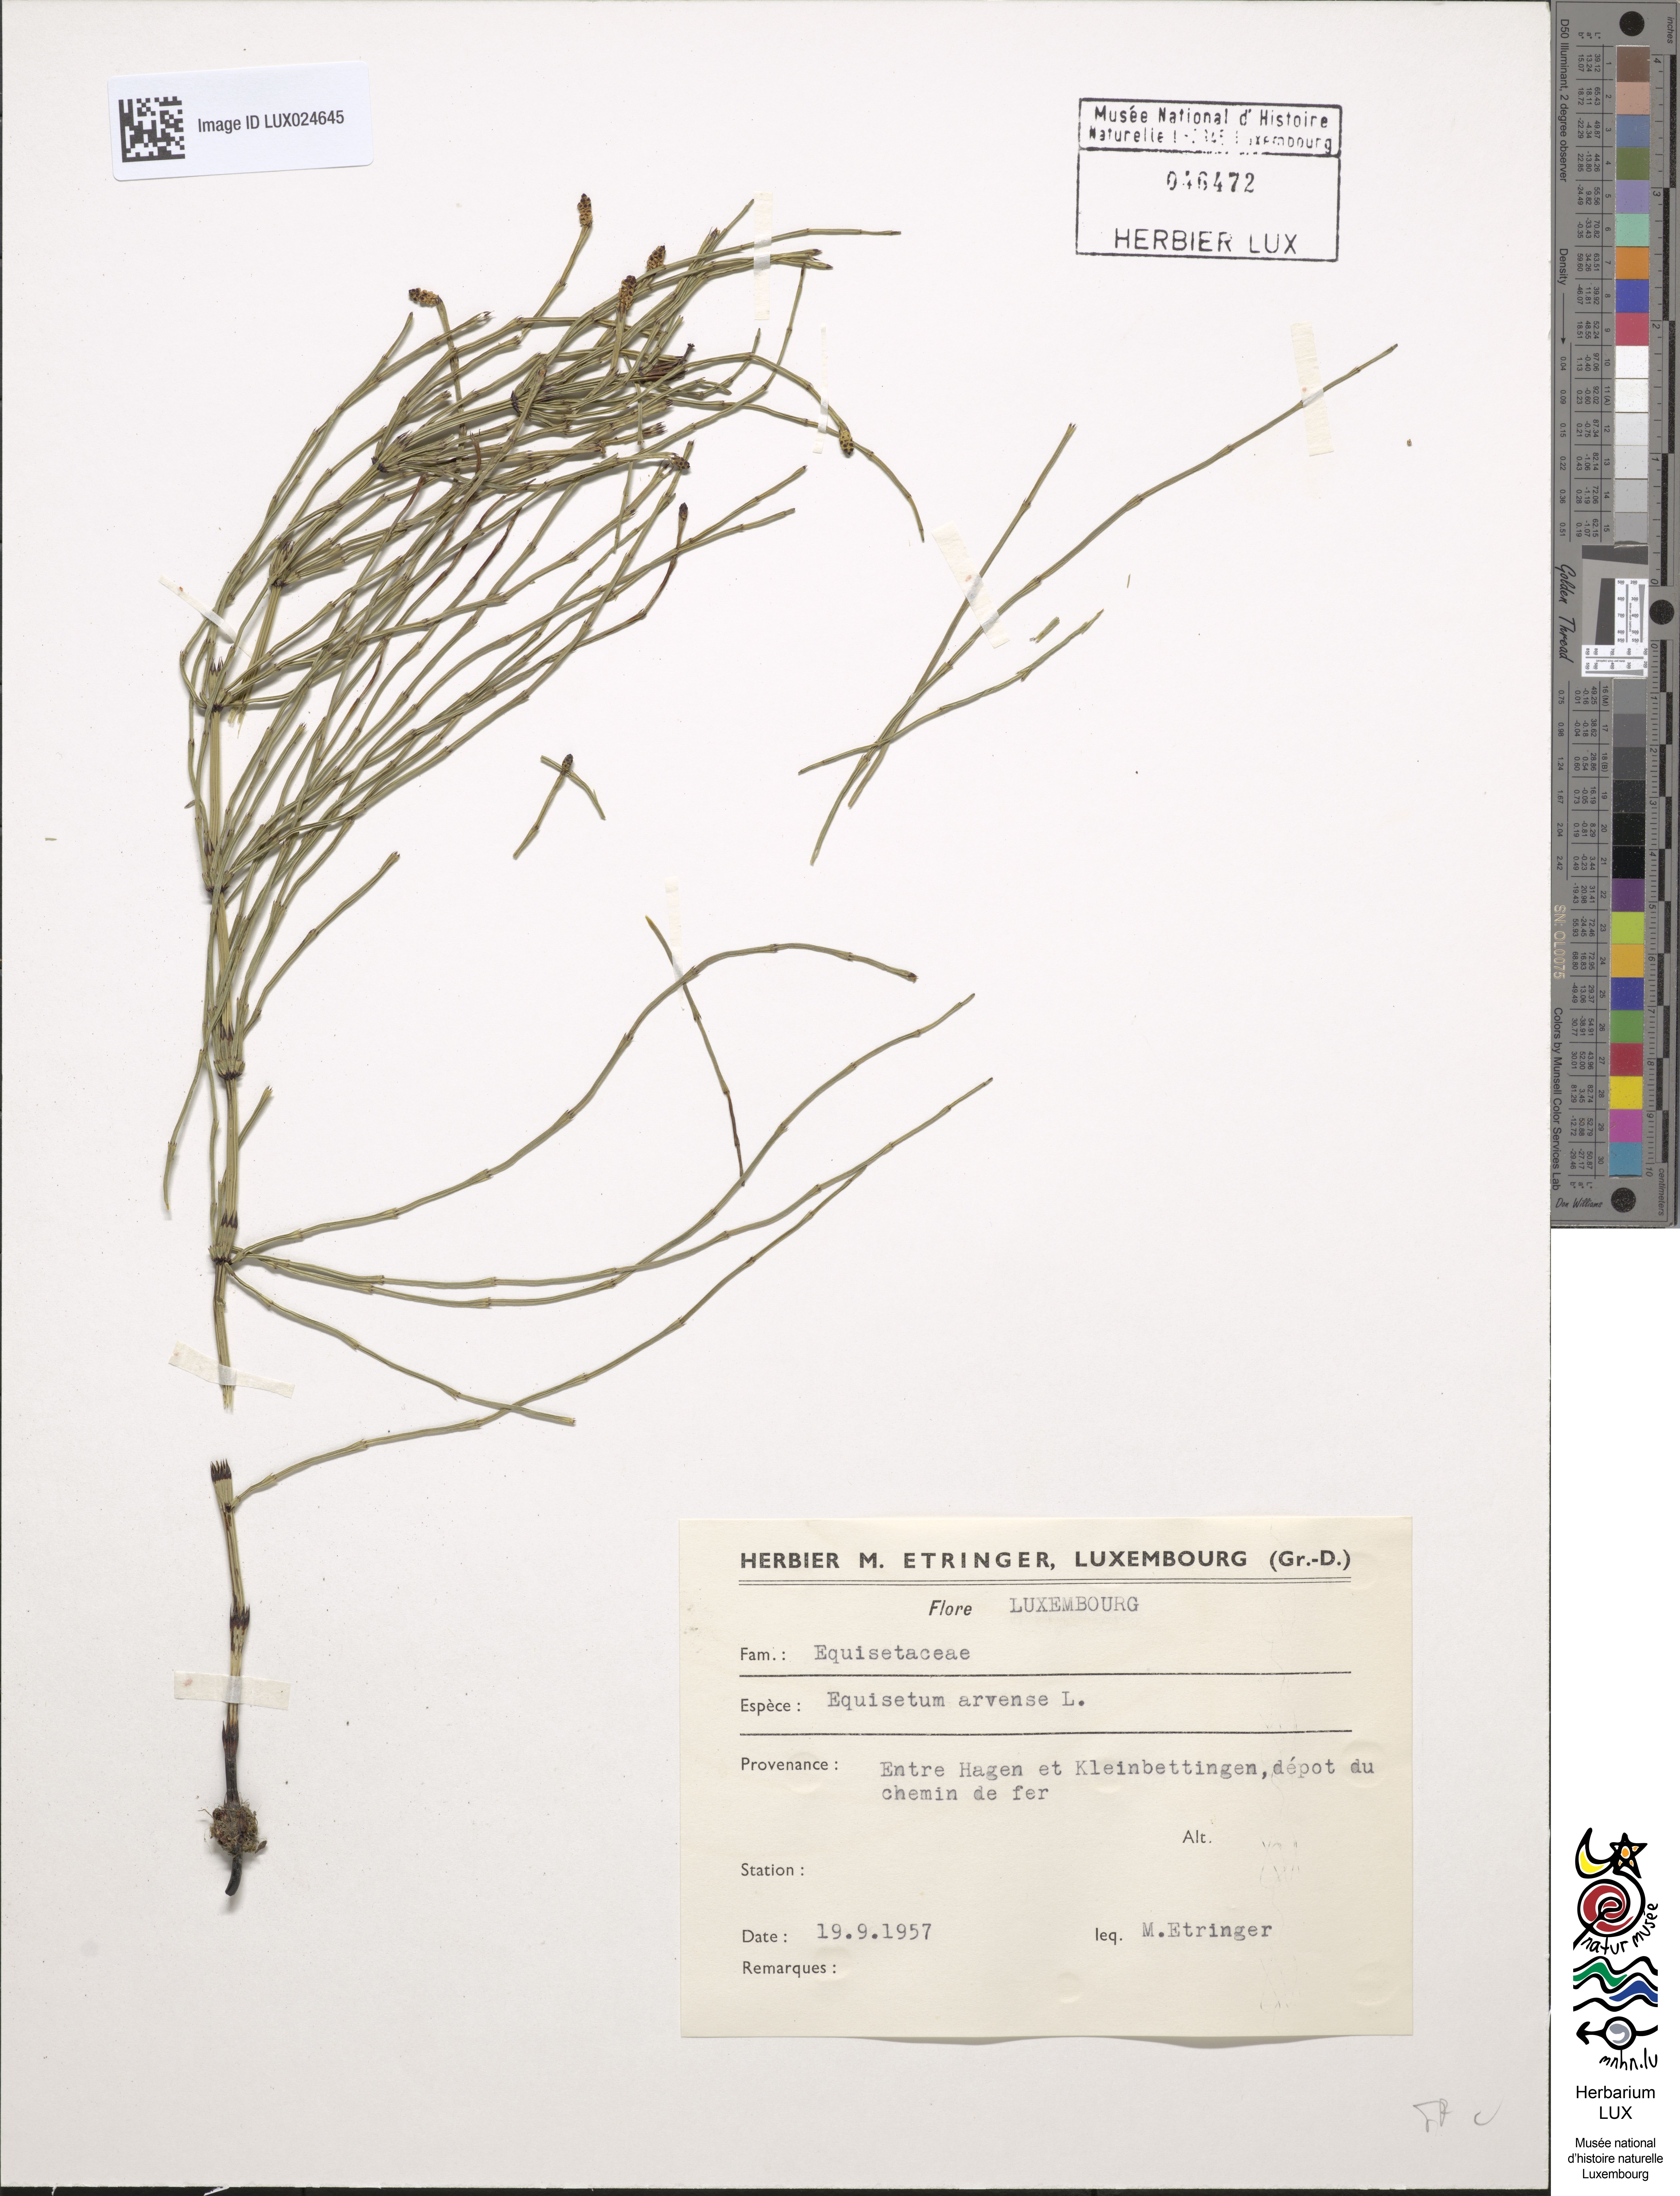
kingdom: Plantae
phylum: Tracheophyta
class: Polypodiopsida
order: Equisetales
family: Equisetaceae
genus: Equisetum
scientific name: Equisetum arvense
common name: Field horsetail
